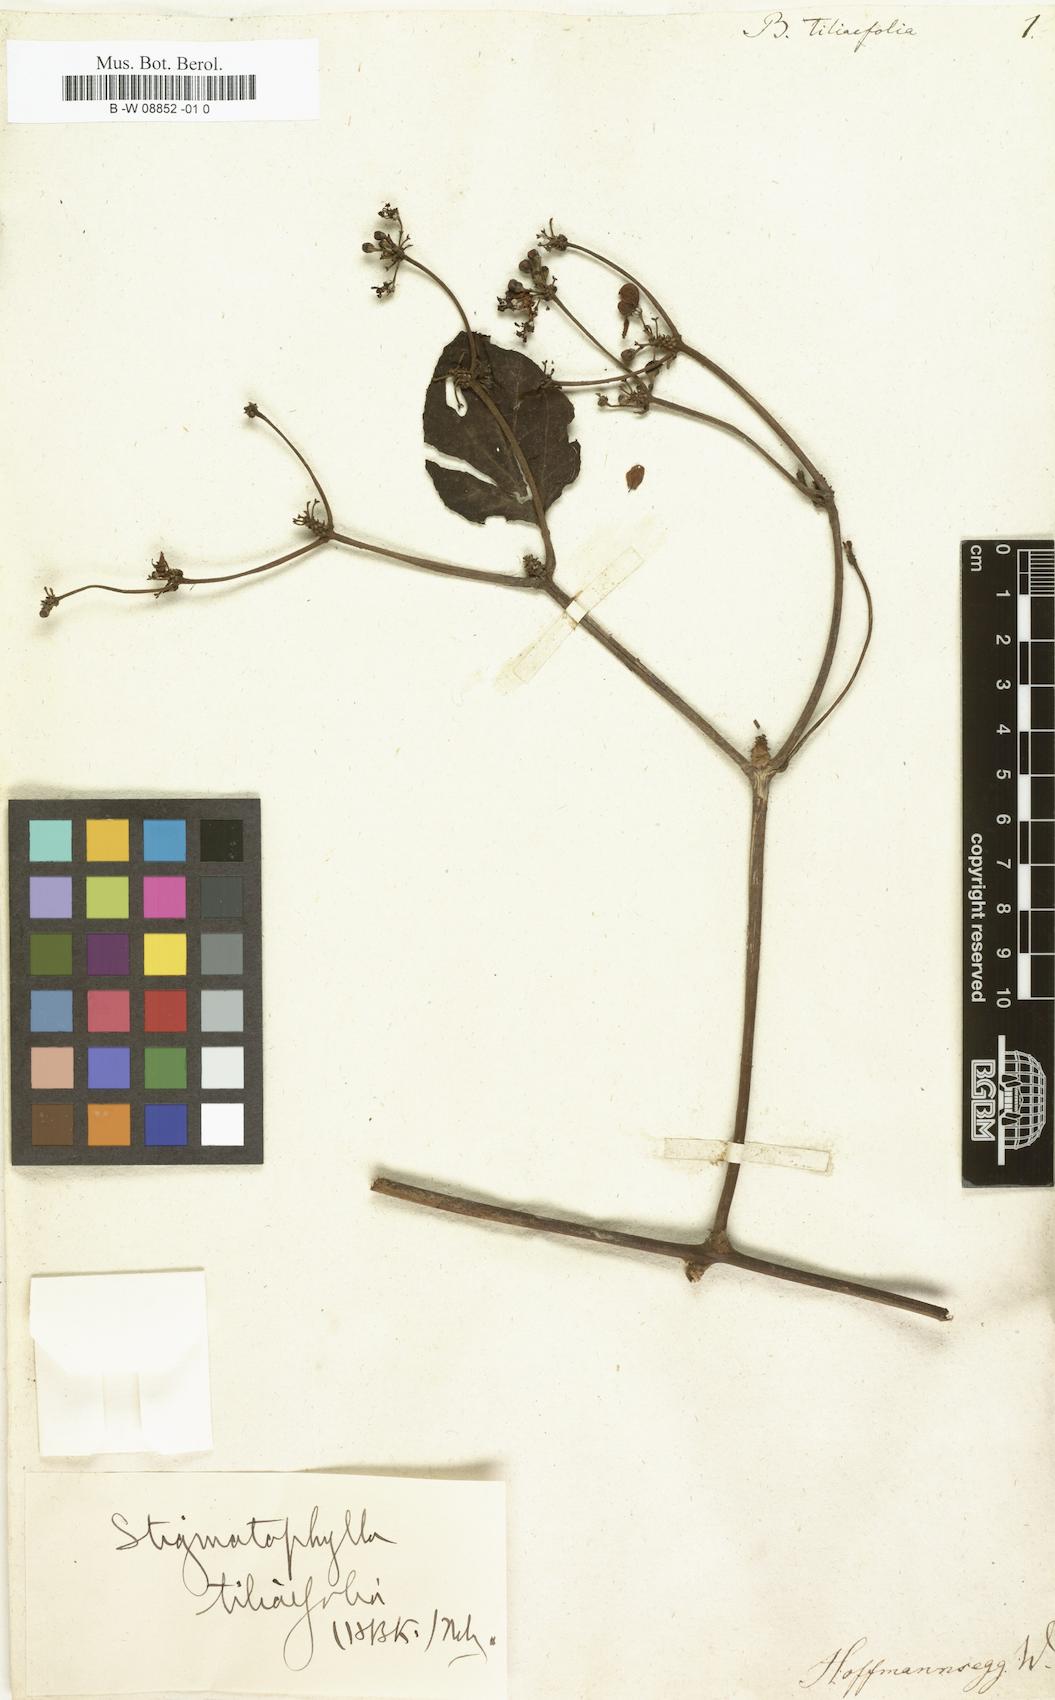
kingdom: Plantae
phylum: Tracheophyta
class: Magnoliopsida
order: Malpighiales
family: Malpighiaceae
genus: Stigmaphyllon
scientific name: Stigmaphyllon
